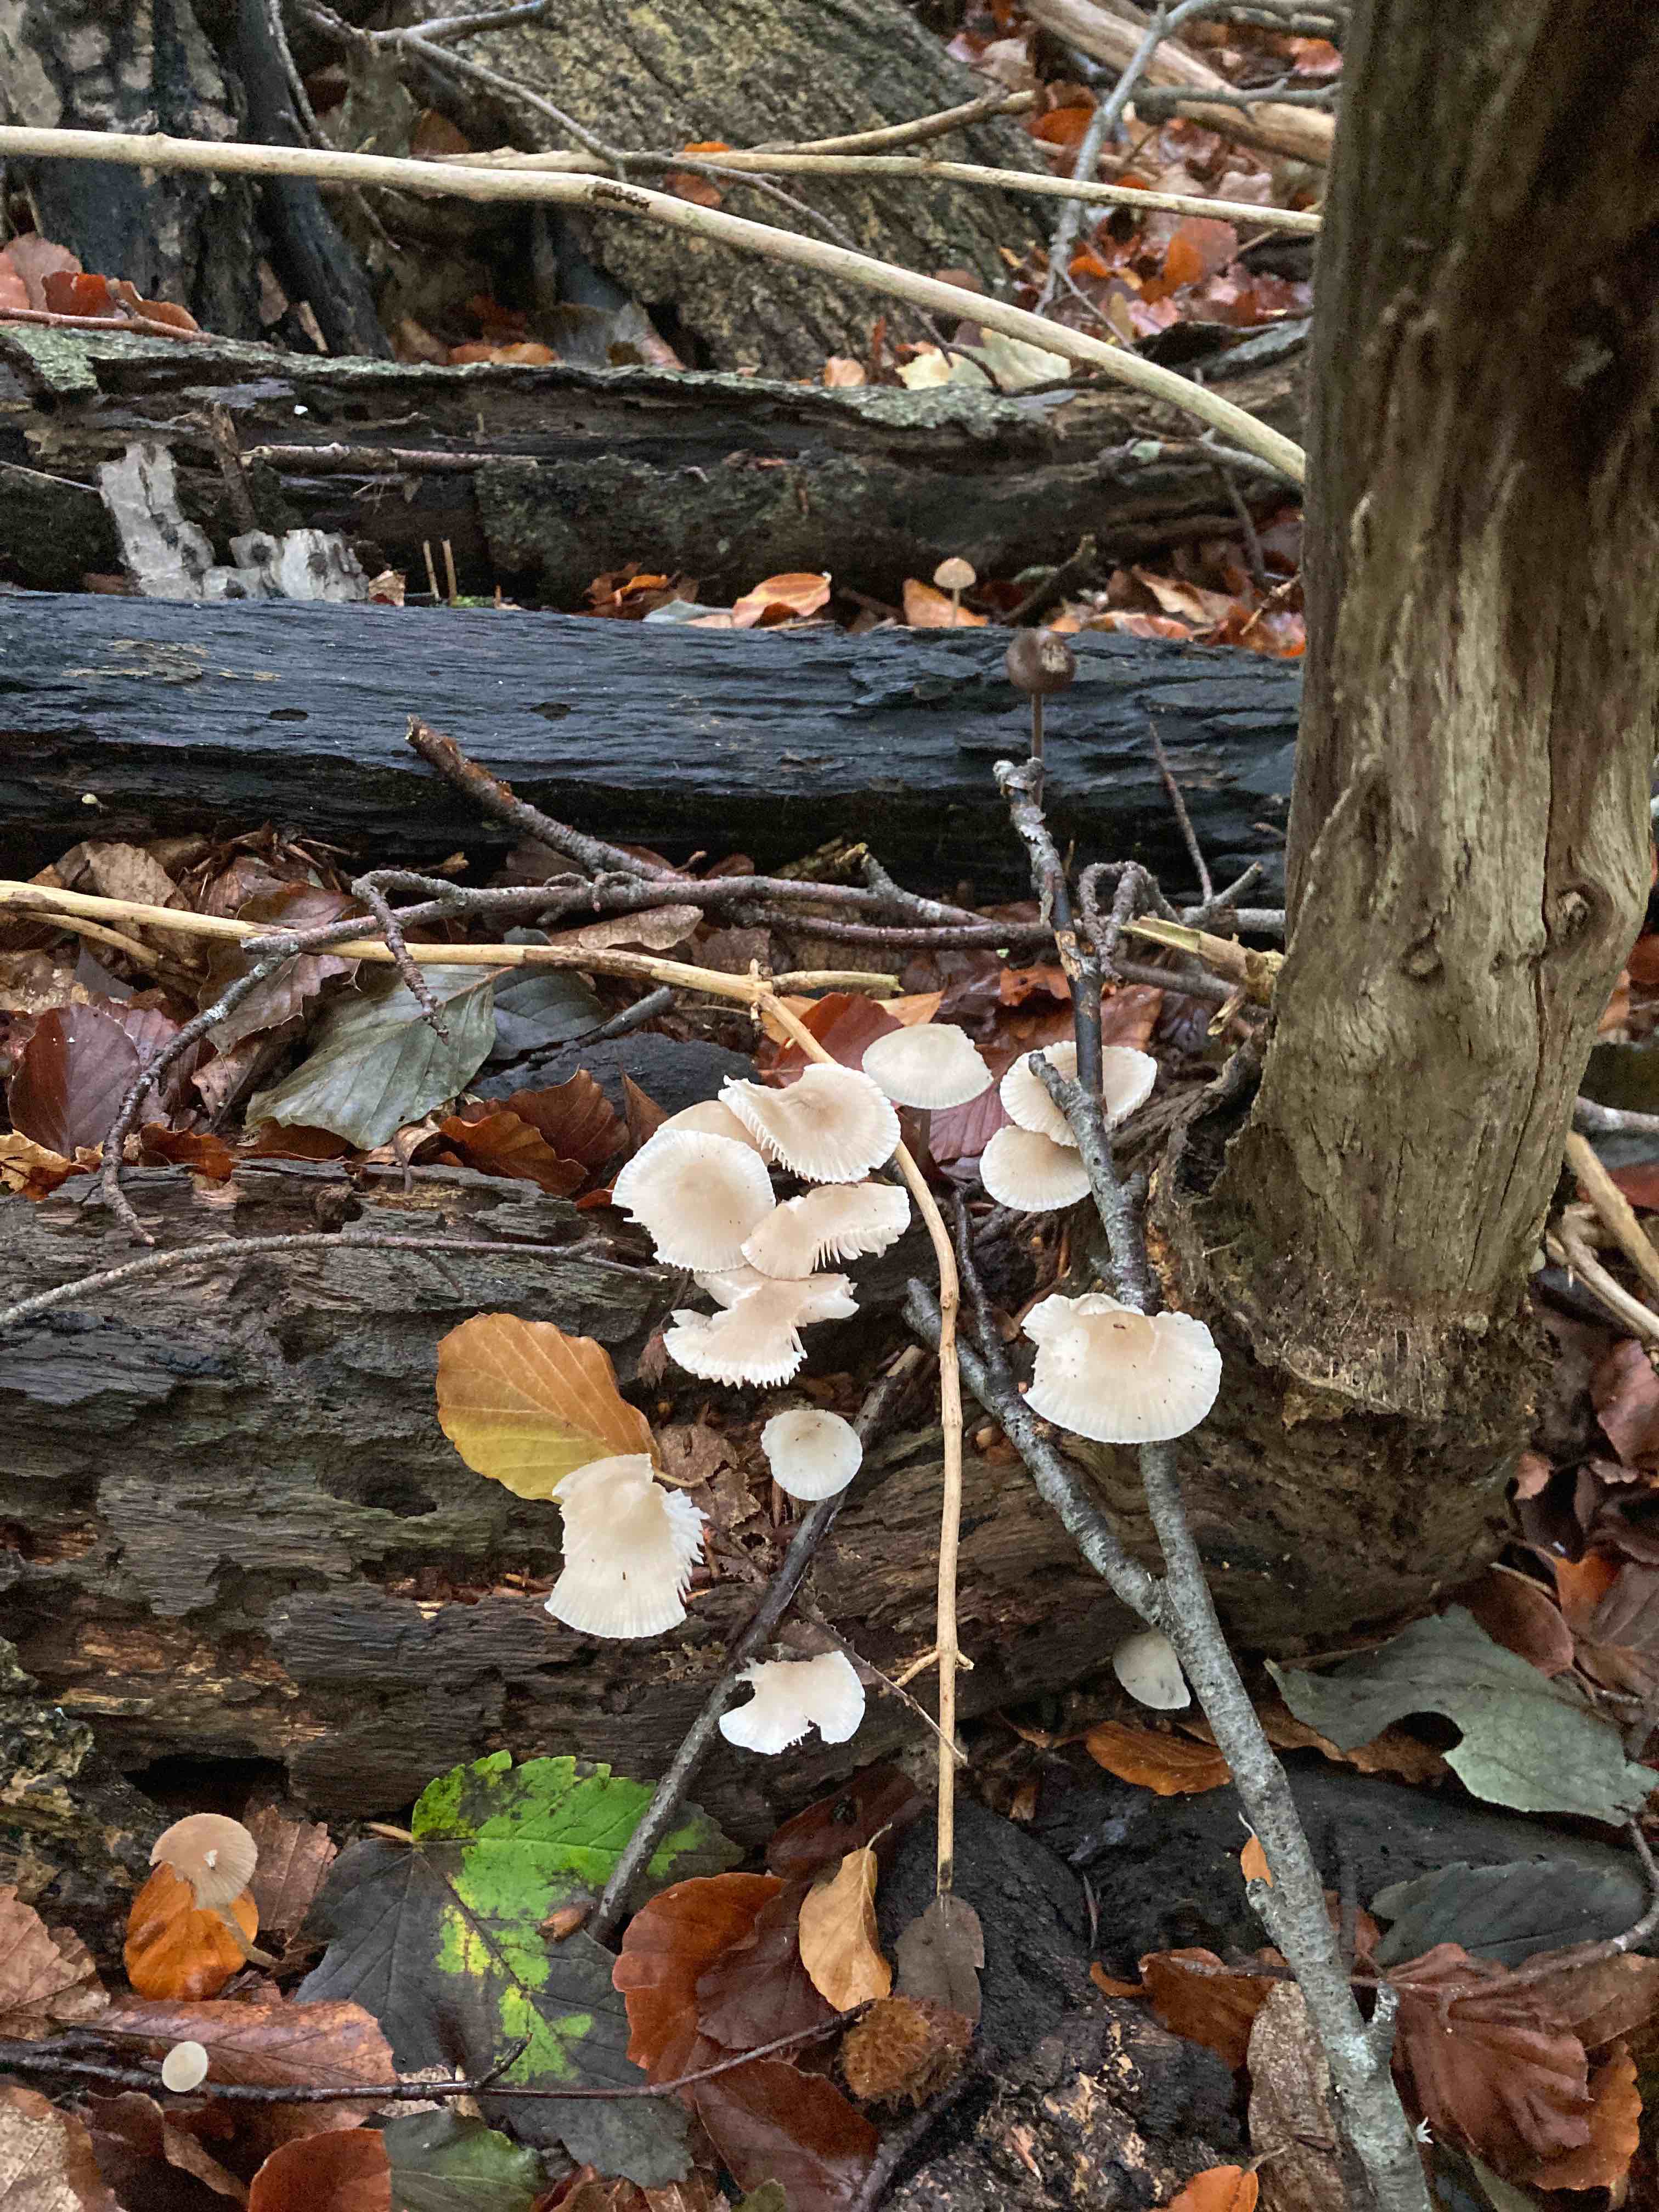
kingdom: Fungi
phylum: Basidiomycota
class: Agaricomycetes
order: Agaricales
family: Mycenaceae
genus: Mycena
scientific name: Mycena galericulata
